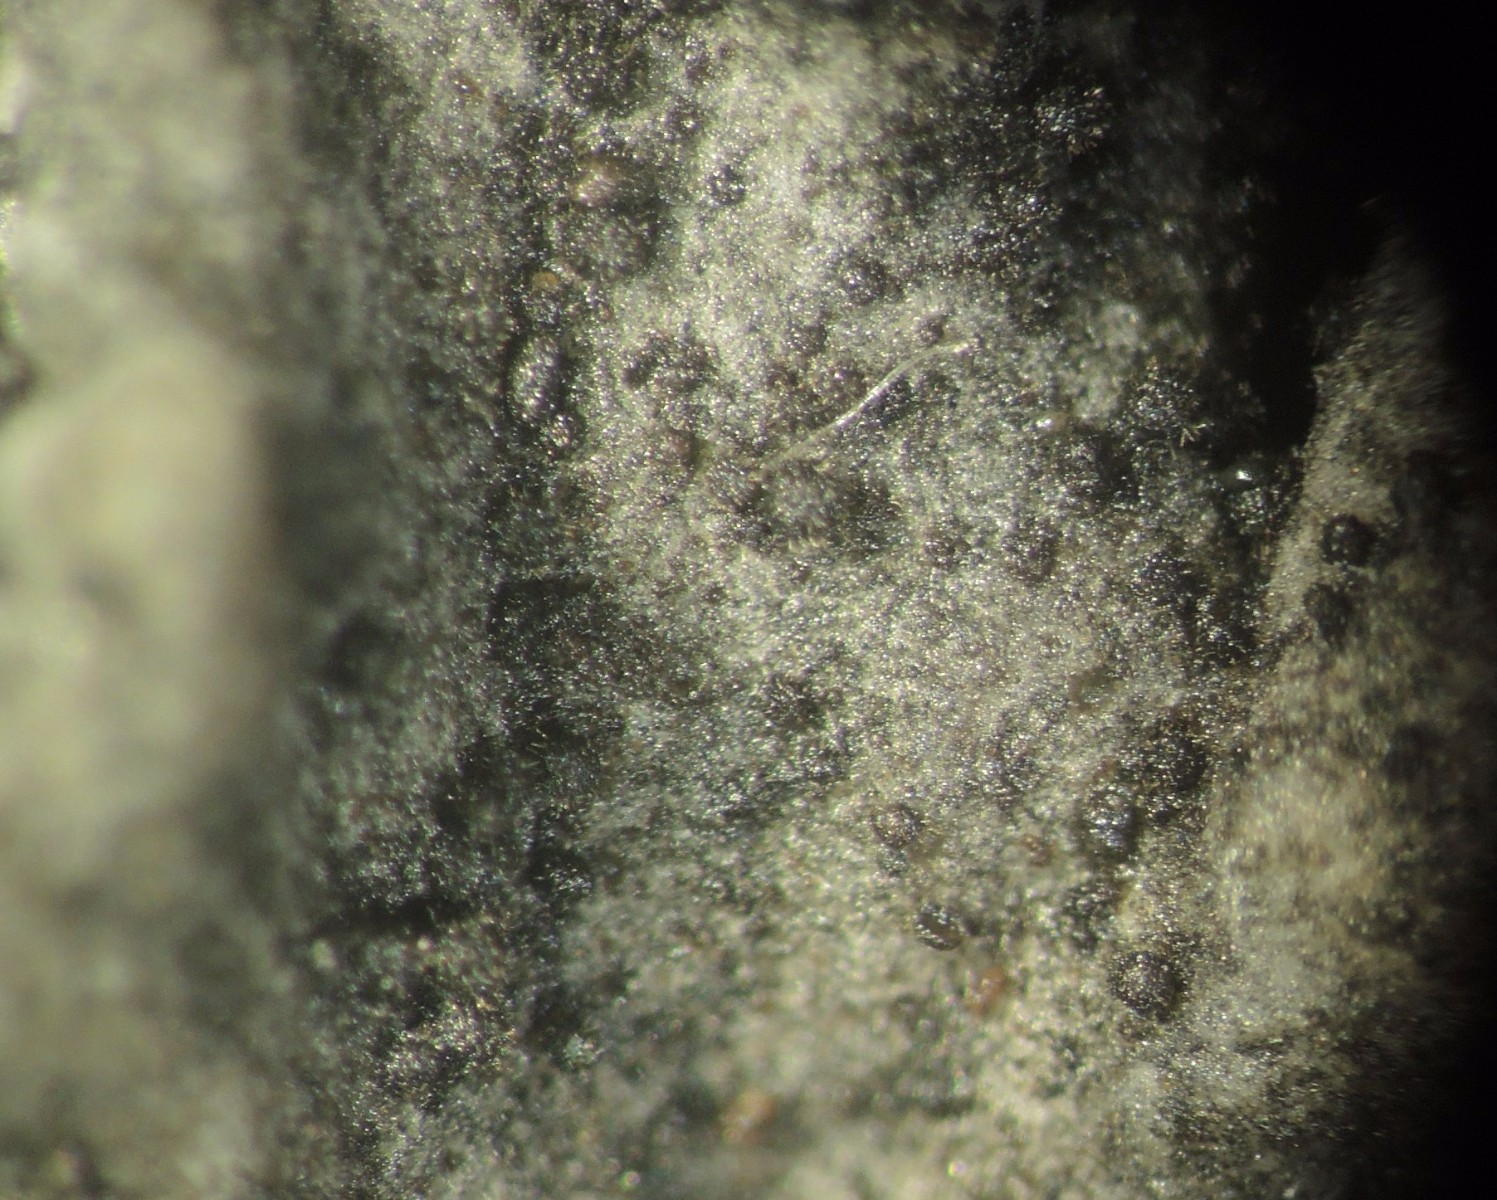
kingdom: Fungi
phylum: Ascomycota
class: Sordariomycetes
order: Sordariales
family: Helminthosphaeriaceae
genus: Helminthosphaeria
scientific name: Helminthosphaeria clavariarum
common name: trold-svampesnyltekerne
